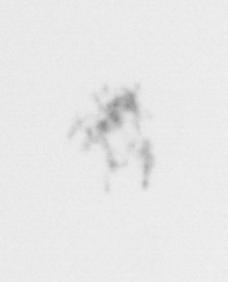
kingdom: Chromista
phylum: Ochrophyta
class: Bacillariophyceae
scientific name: Bacillariophyceae
